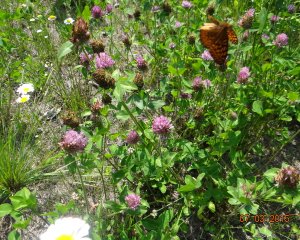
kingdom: Animalia
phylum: Arthropoda
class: Insecta
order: Lepidoptera
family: Nymphalidae
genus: Speyeria
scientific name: Speyeria atlantis
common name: Atlantis Fritillary
